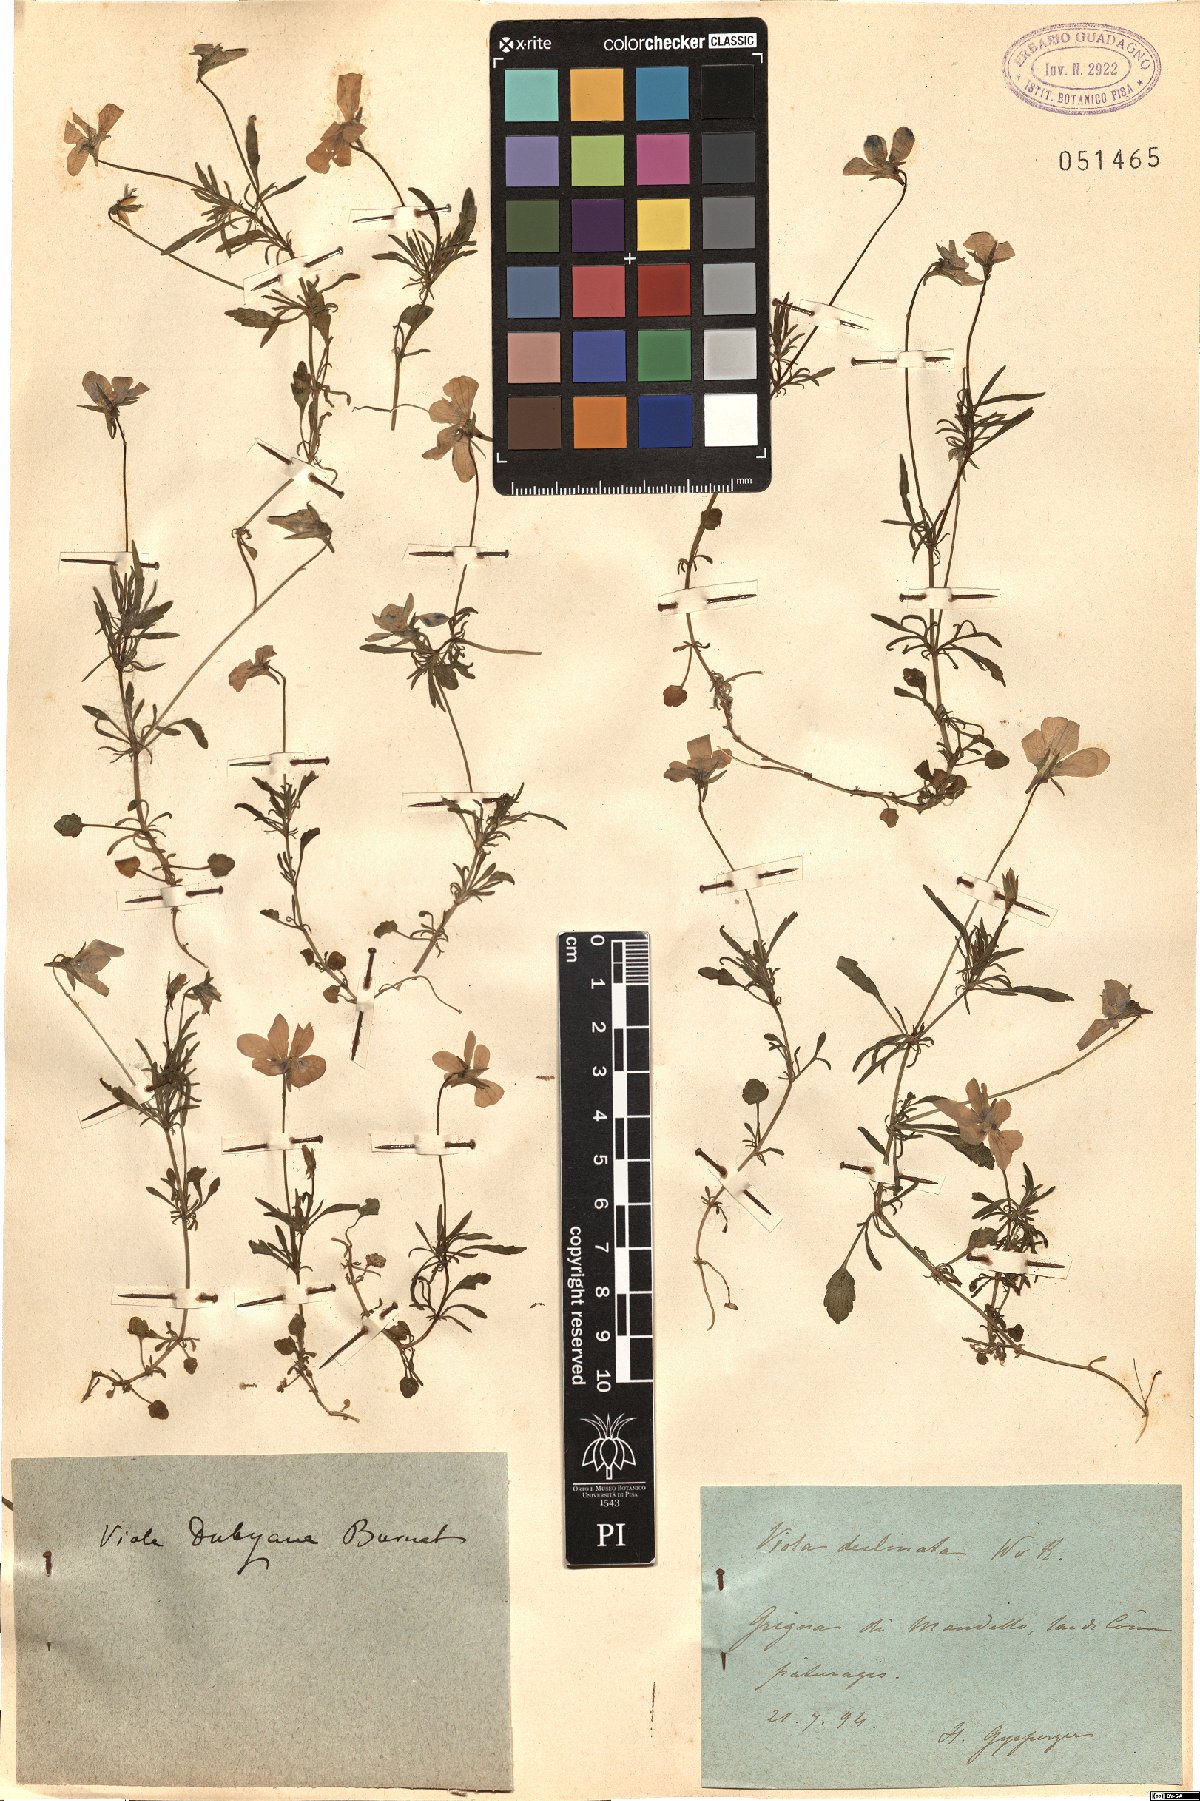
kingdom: Plantae
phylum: Tracheophyta
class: Magnoliopsida
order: Malpighiales
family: Violaceae
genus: Viola
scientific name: Viola dubyana
